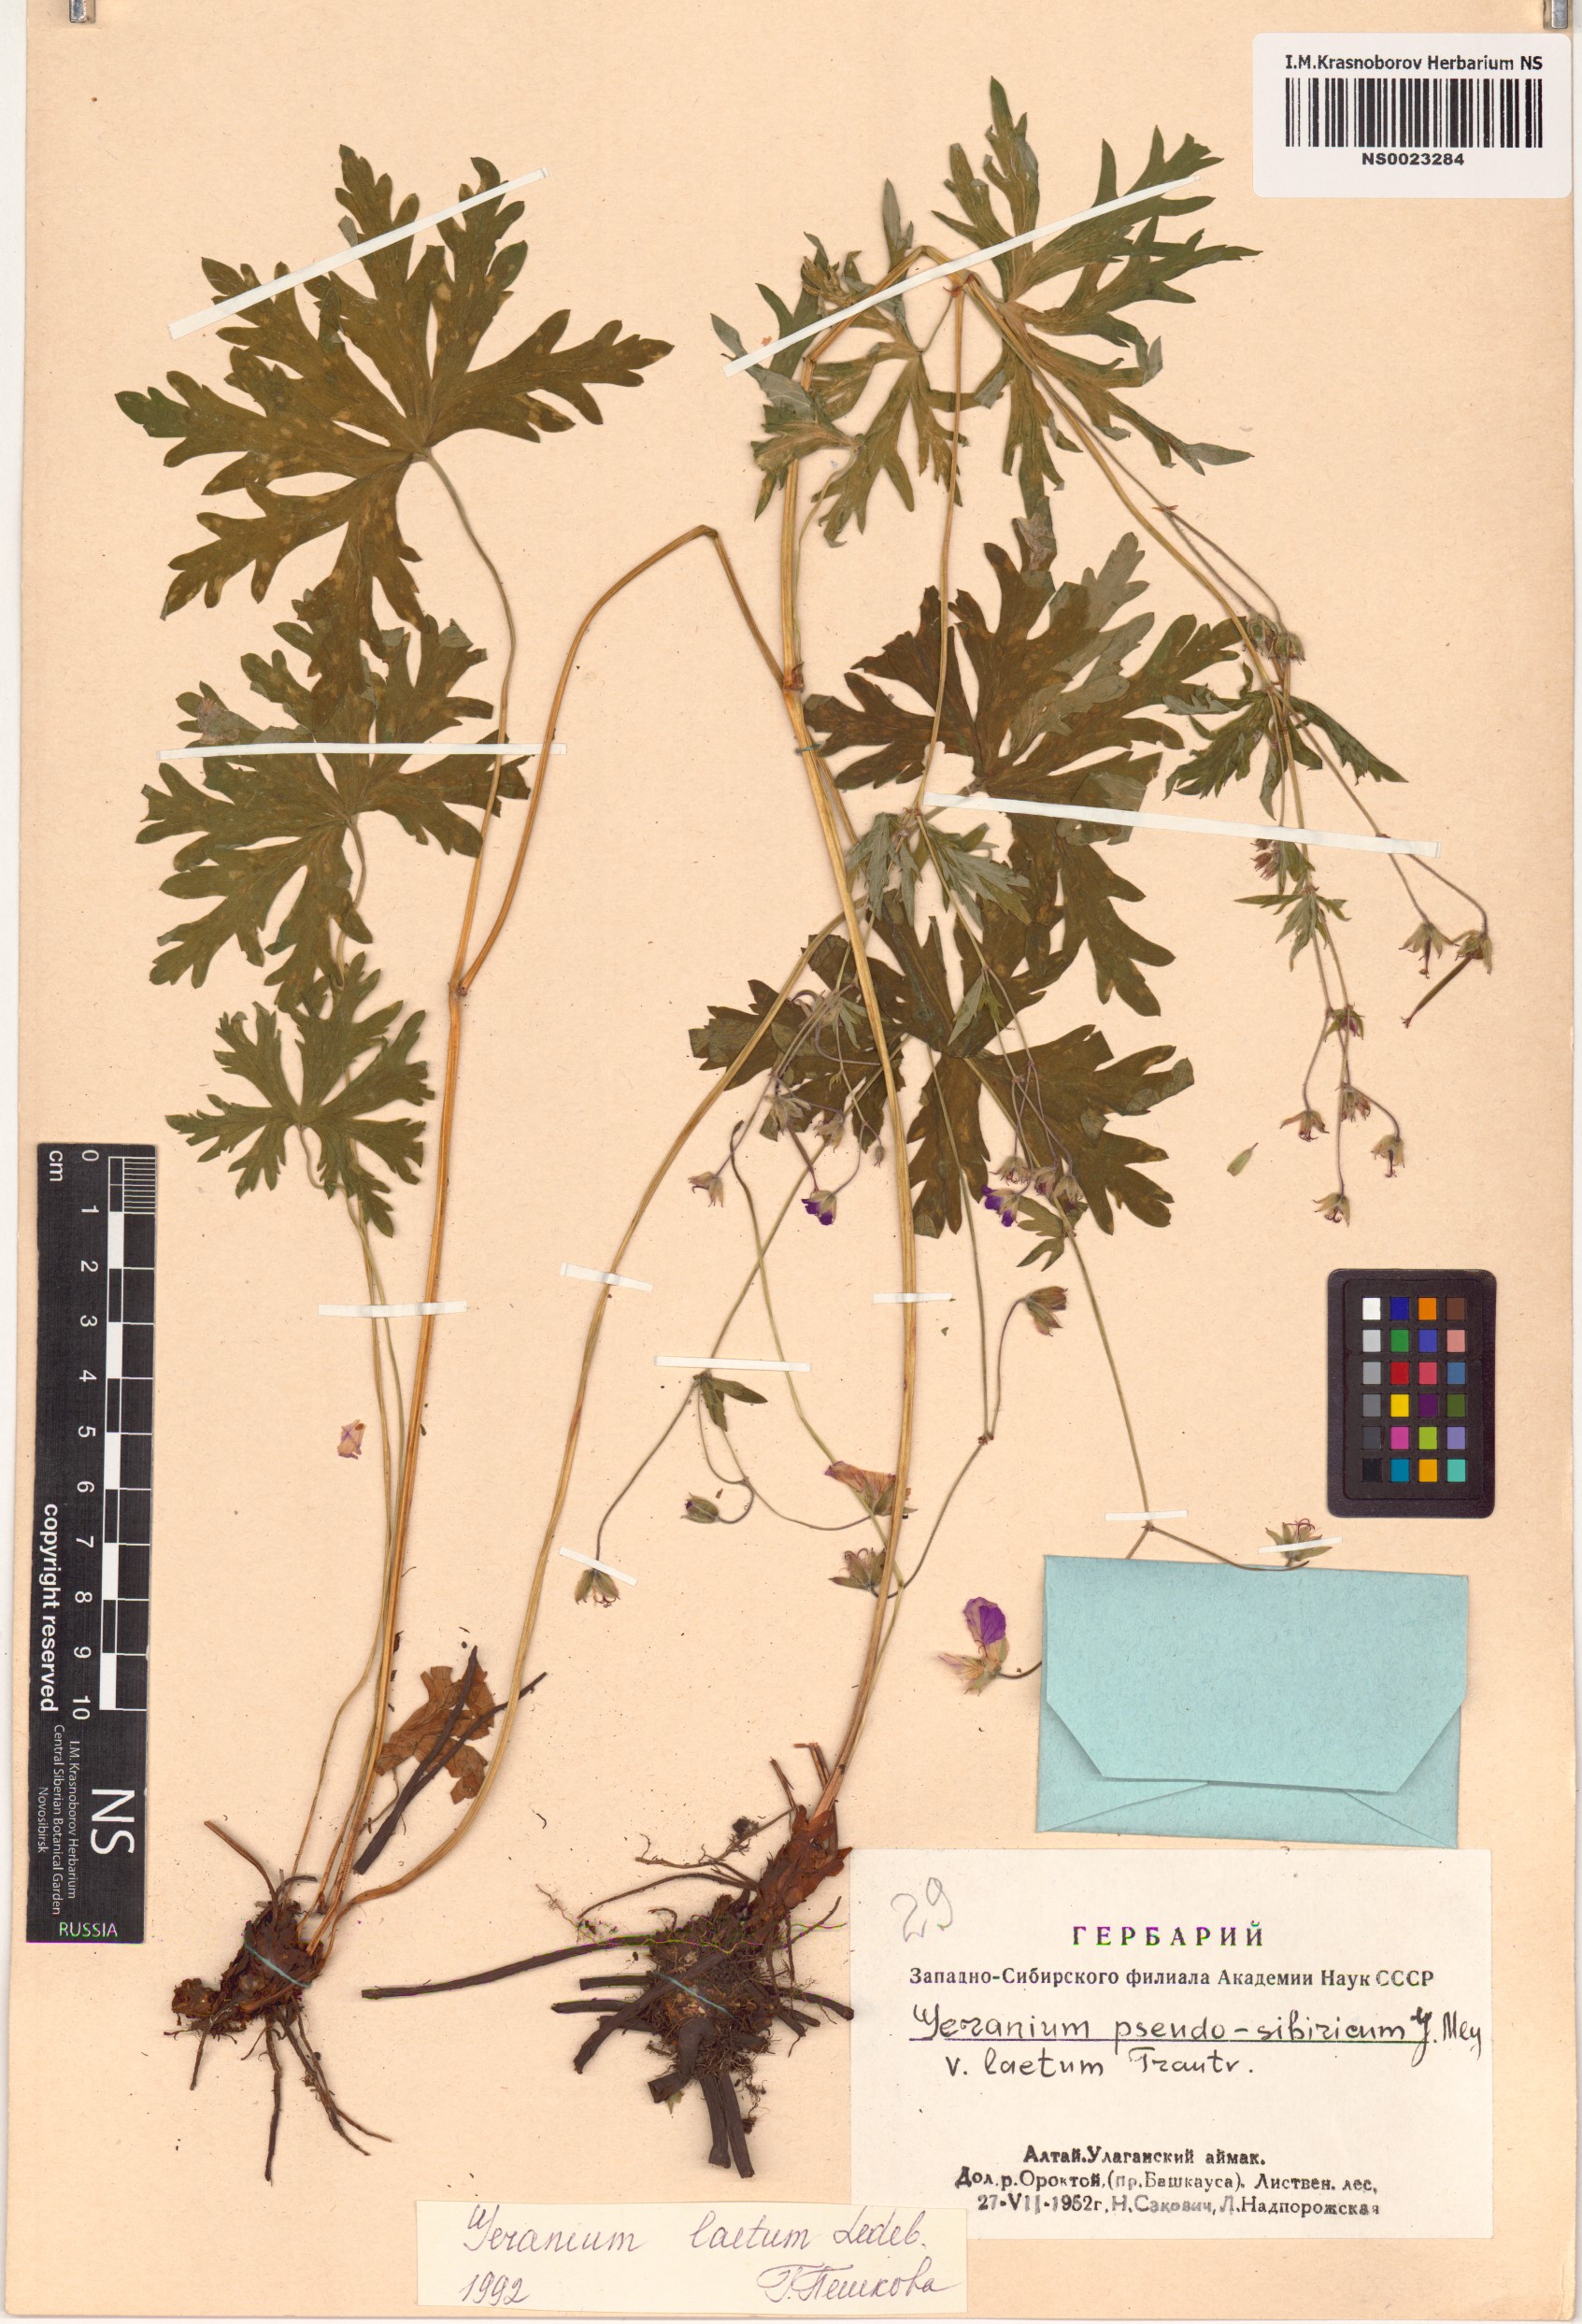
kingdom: Plantae
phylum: Tracheophyta
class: Magnoliopsida
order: Geraniales
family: Geraniaceae
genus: Geranium
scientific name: Geranium pseudosibiricum
